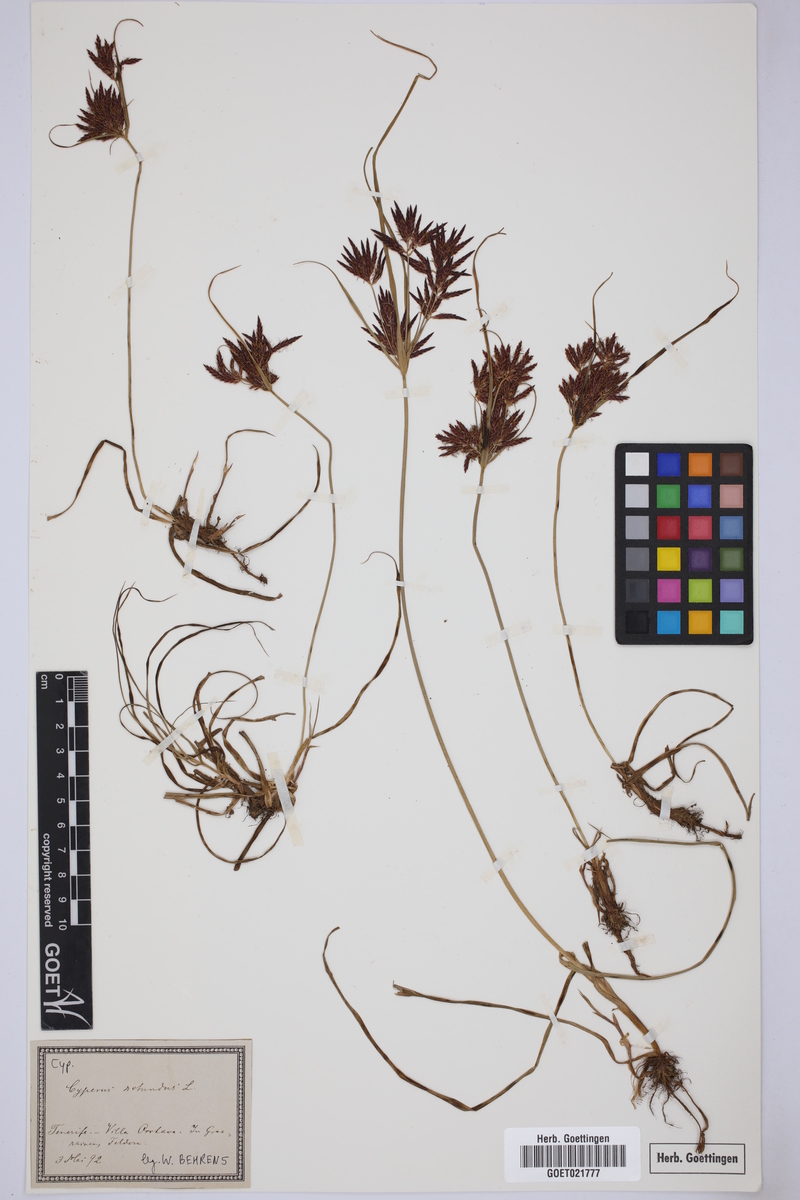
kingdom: Plantae
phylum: Tracheophyta
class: Liliopsida
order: Poales
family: Cyperaceae
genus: Cyperus
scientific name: Cyperus rotundus
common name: Nutgrass
